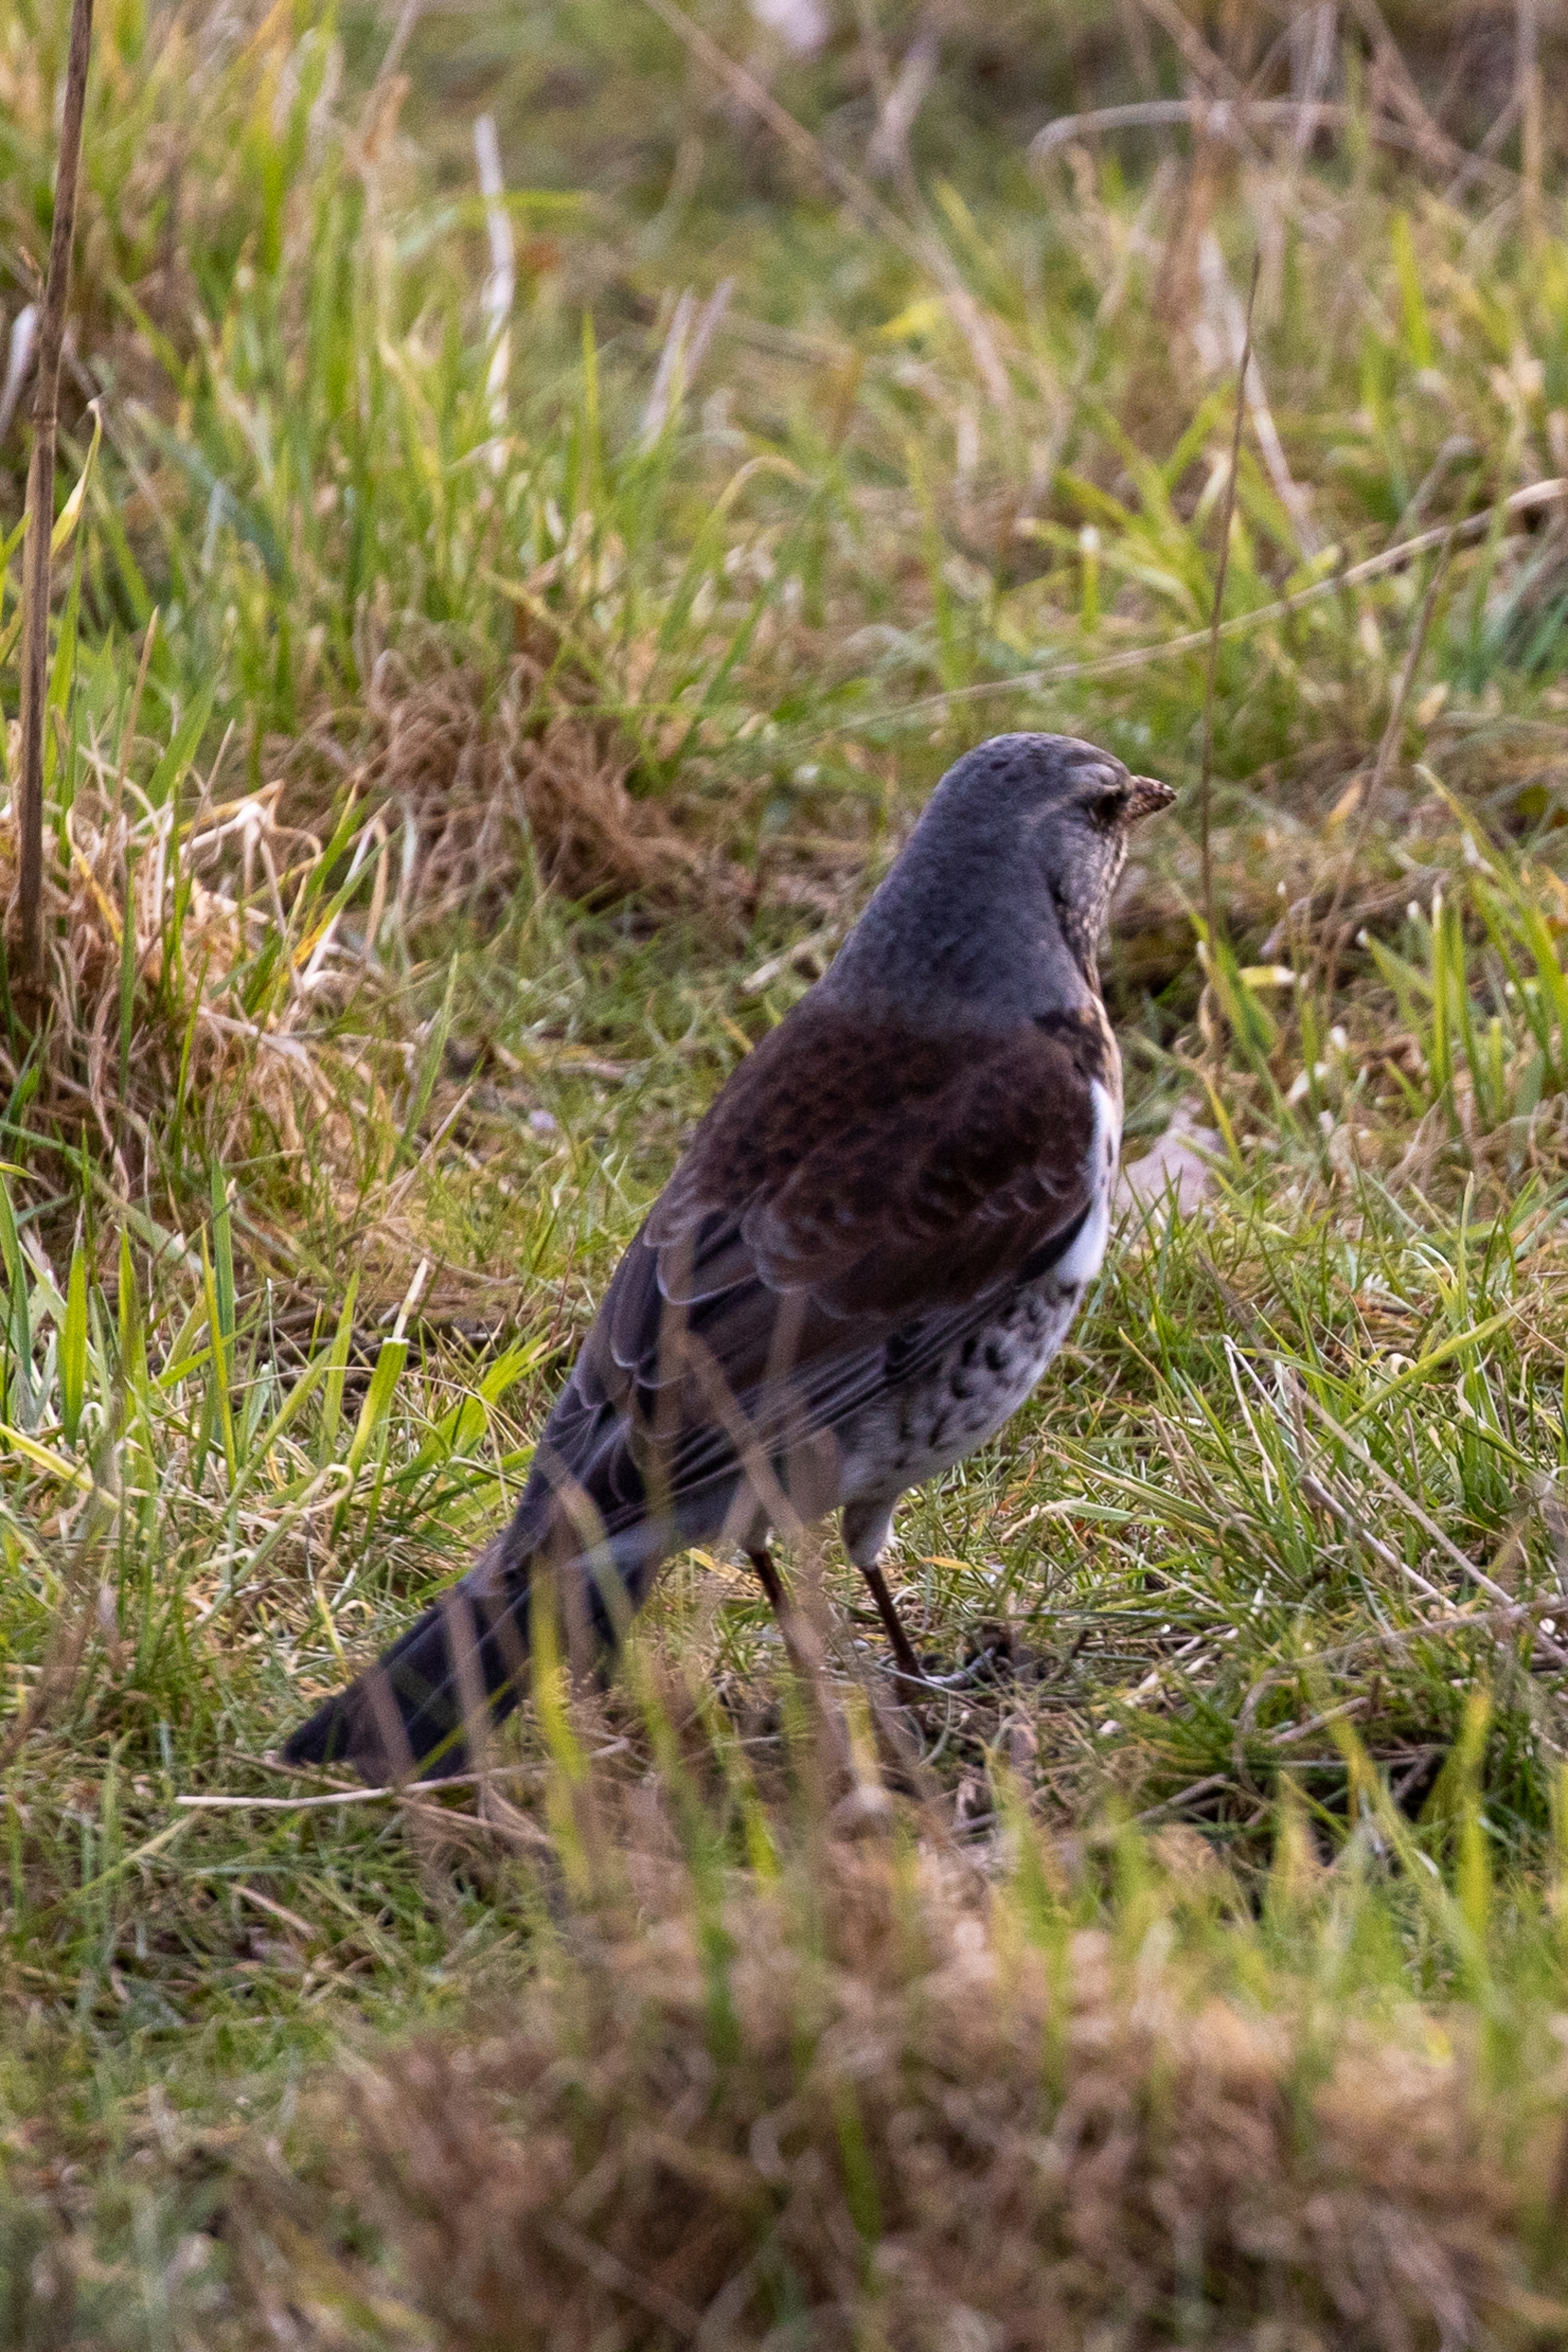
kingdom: Animalia
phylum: Chordata
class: Aves
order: Passeriformes
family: Turdidae
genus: Turdus
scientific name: Turdus pilaris
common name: Sjagger
